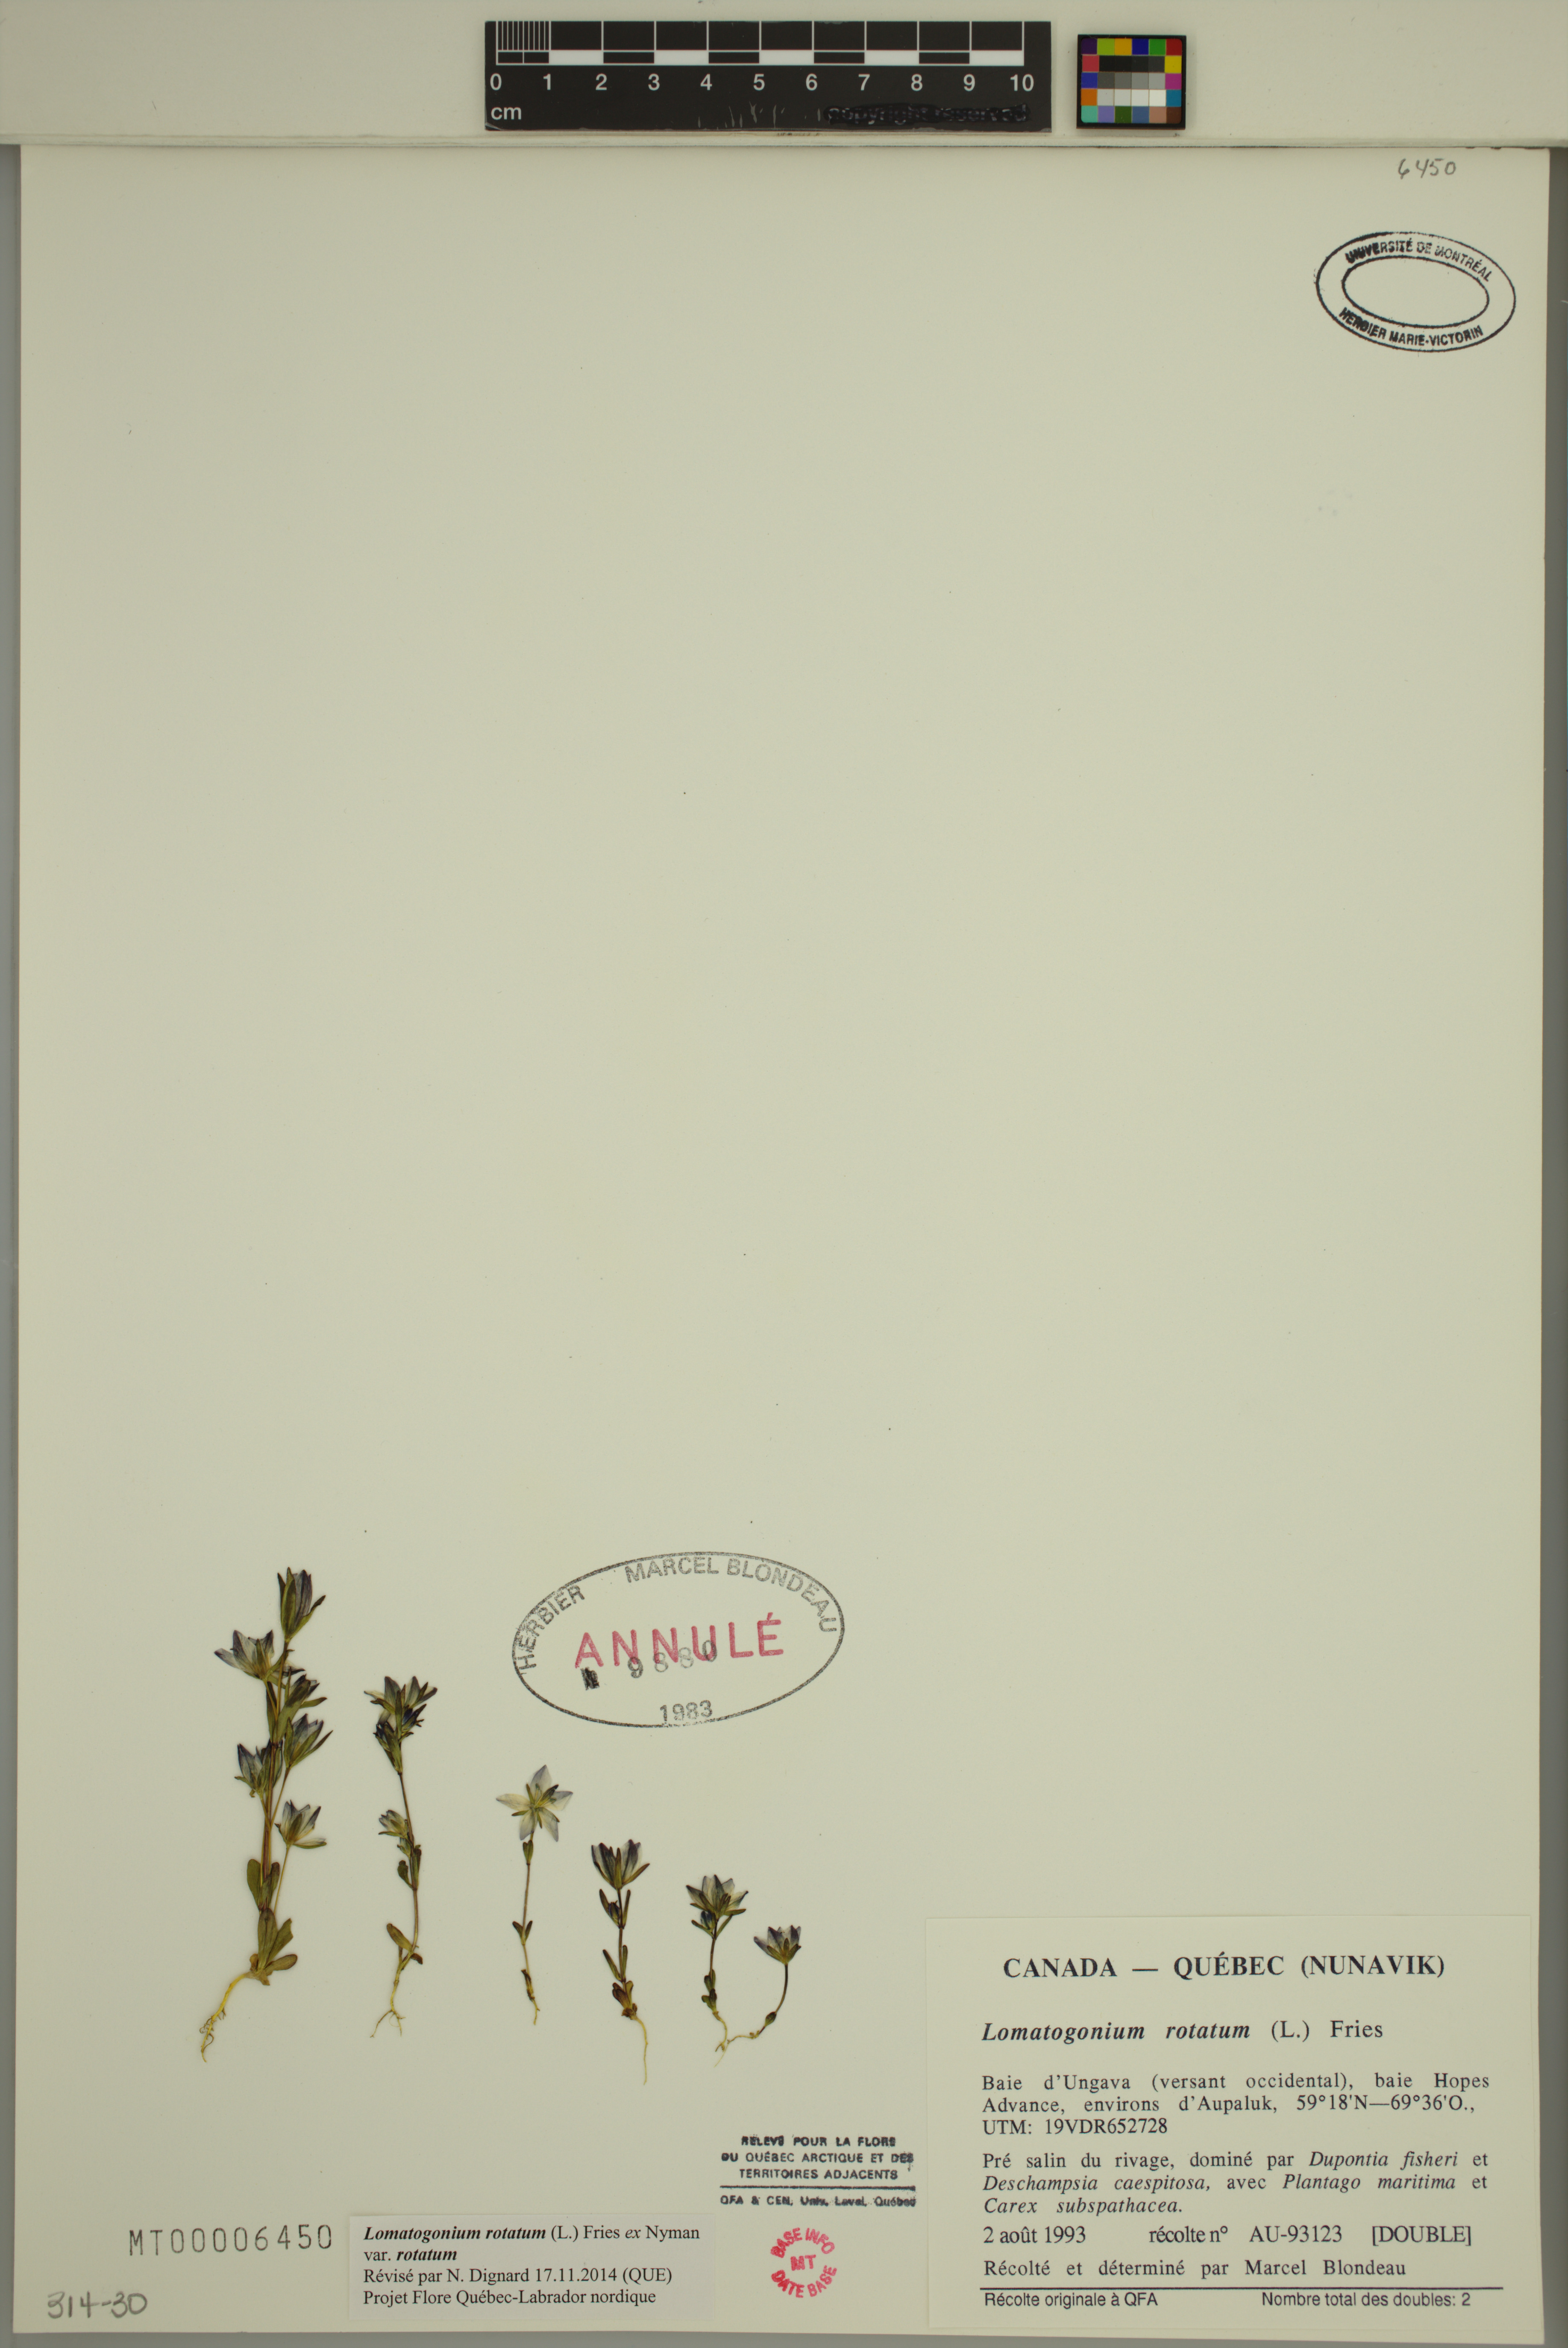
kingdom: Plantae
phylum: Tracheophyta
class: Magnoliopsida
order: Gentianales
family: Gentianaceae
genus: Lomatogonium
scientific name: Lomatogonium rotatum
